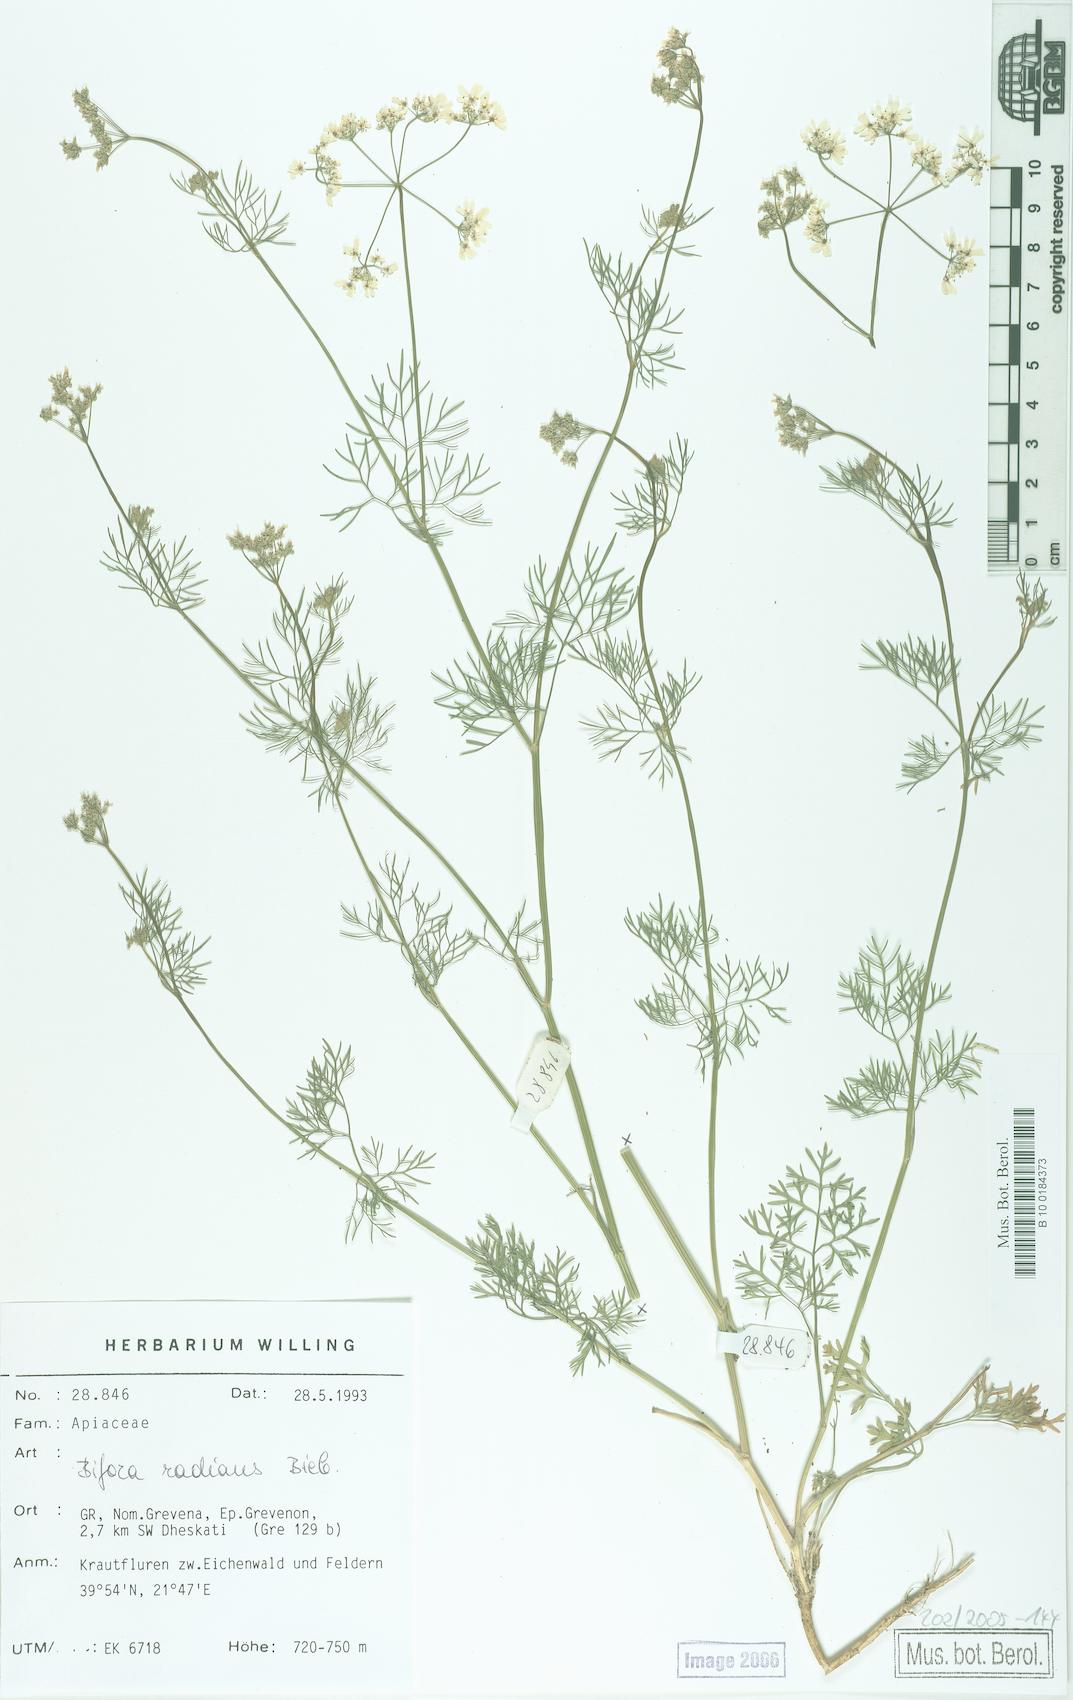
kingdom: Plantae
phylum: Tracheophyta
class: Magnoliopsida
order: Apiales
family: Apiaceae
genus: Bifora
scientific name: Bifora radians
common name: Wild bishop
